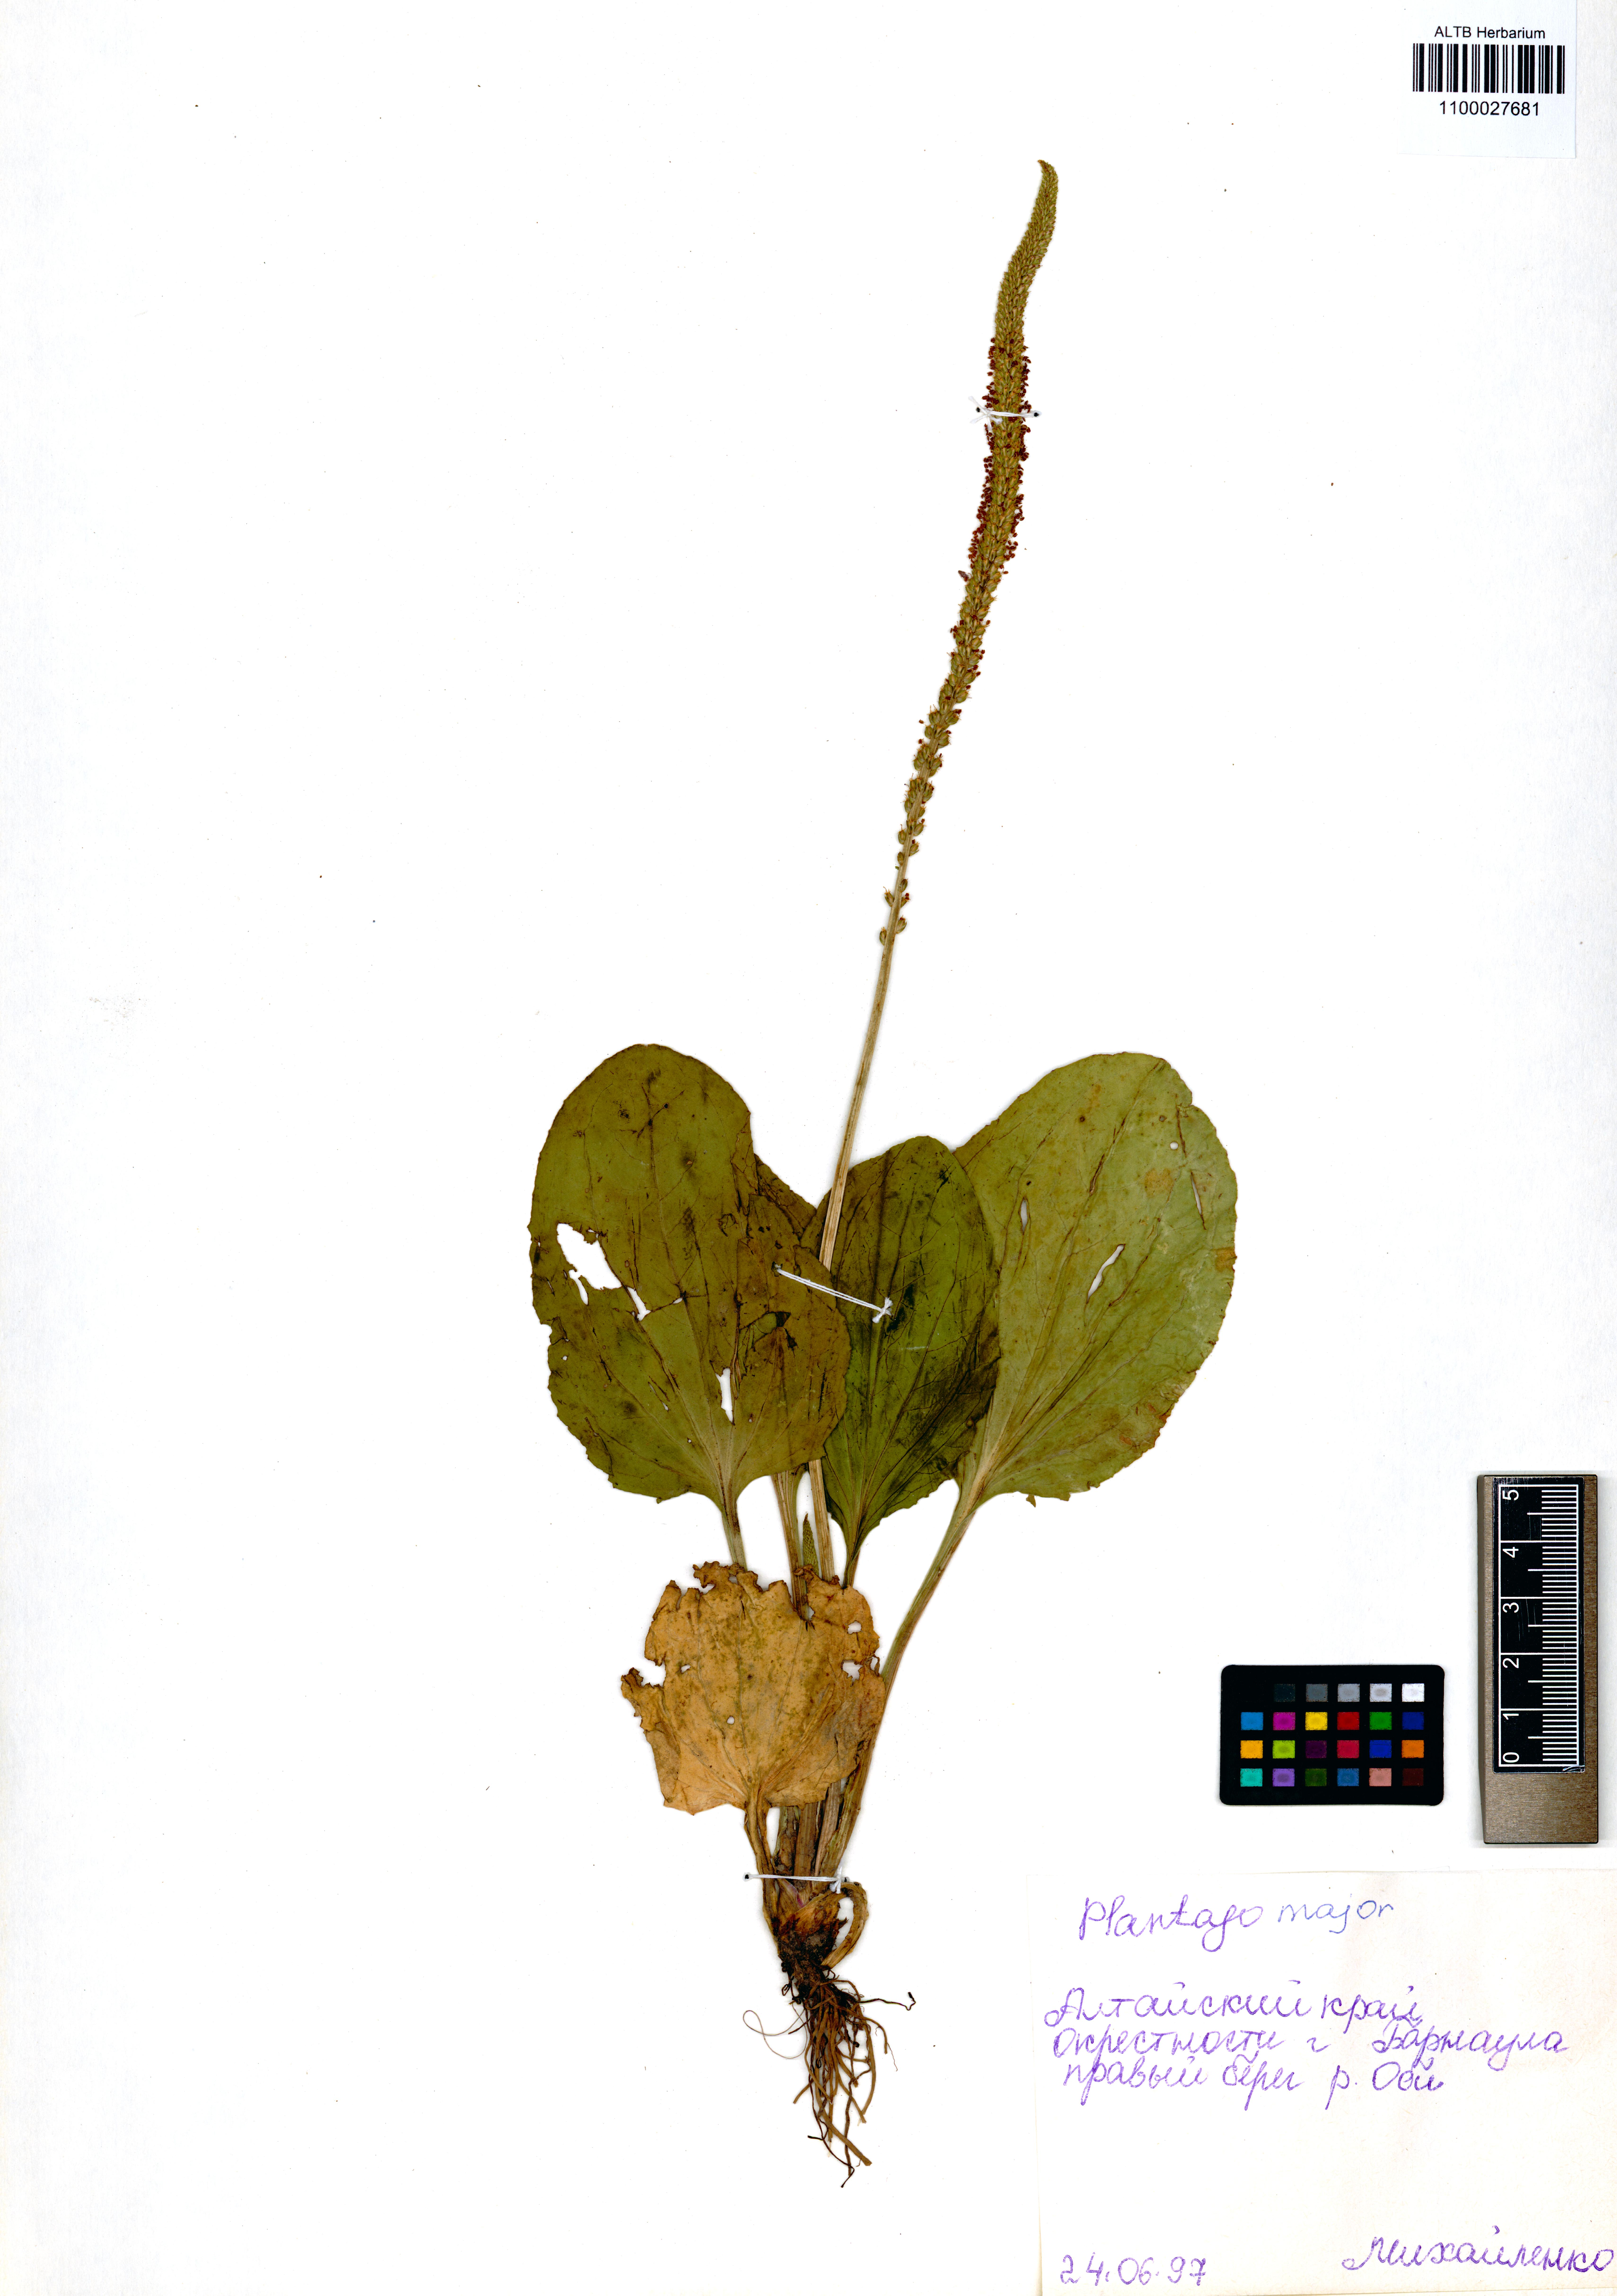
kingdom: Plantae
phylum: Tracheophyta
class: Magnoliopsida
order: Lamiales
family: Plantaginaceae
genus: Plantago
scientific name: Plantago major
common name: Common plantain
